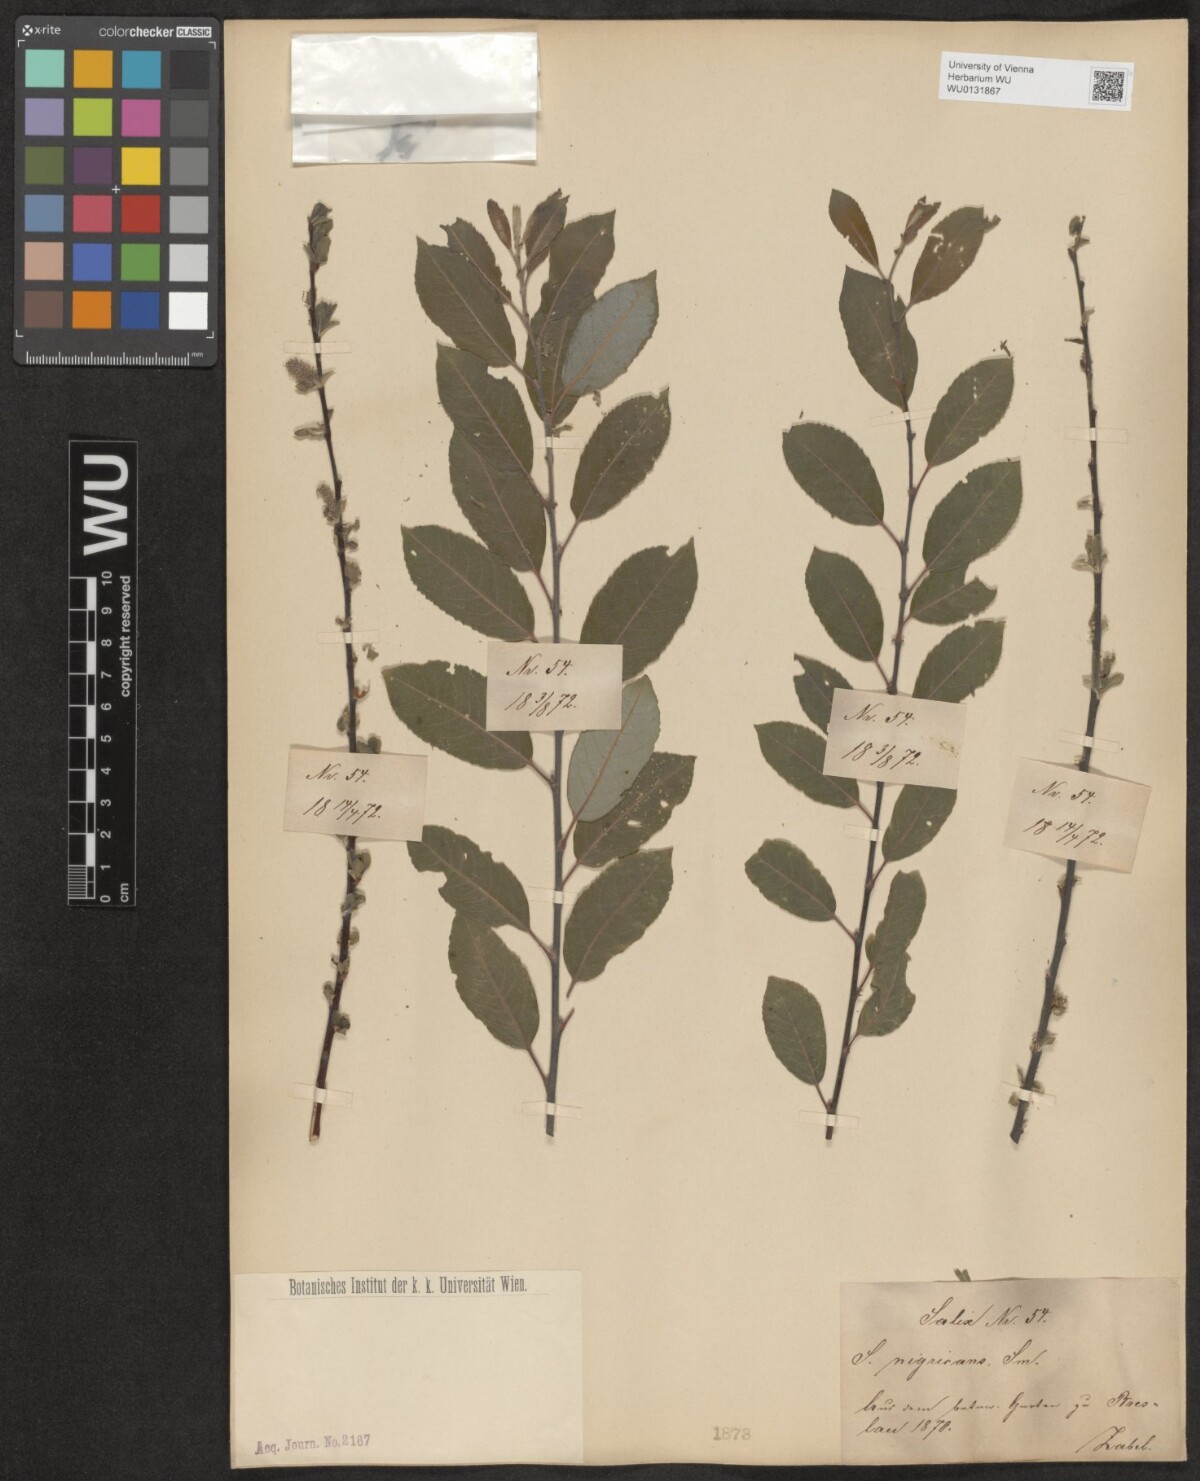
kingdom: Plantae
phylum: Tracheophyta
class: Magnoliopsida
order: Malpighiales
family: Salicaceae
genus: Salix
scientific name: Salix myrsinifolia
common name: Dark-leaved willow
